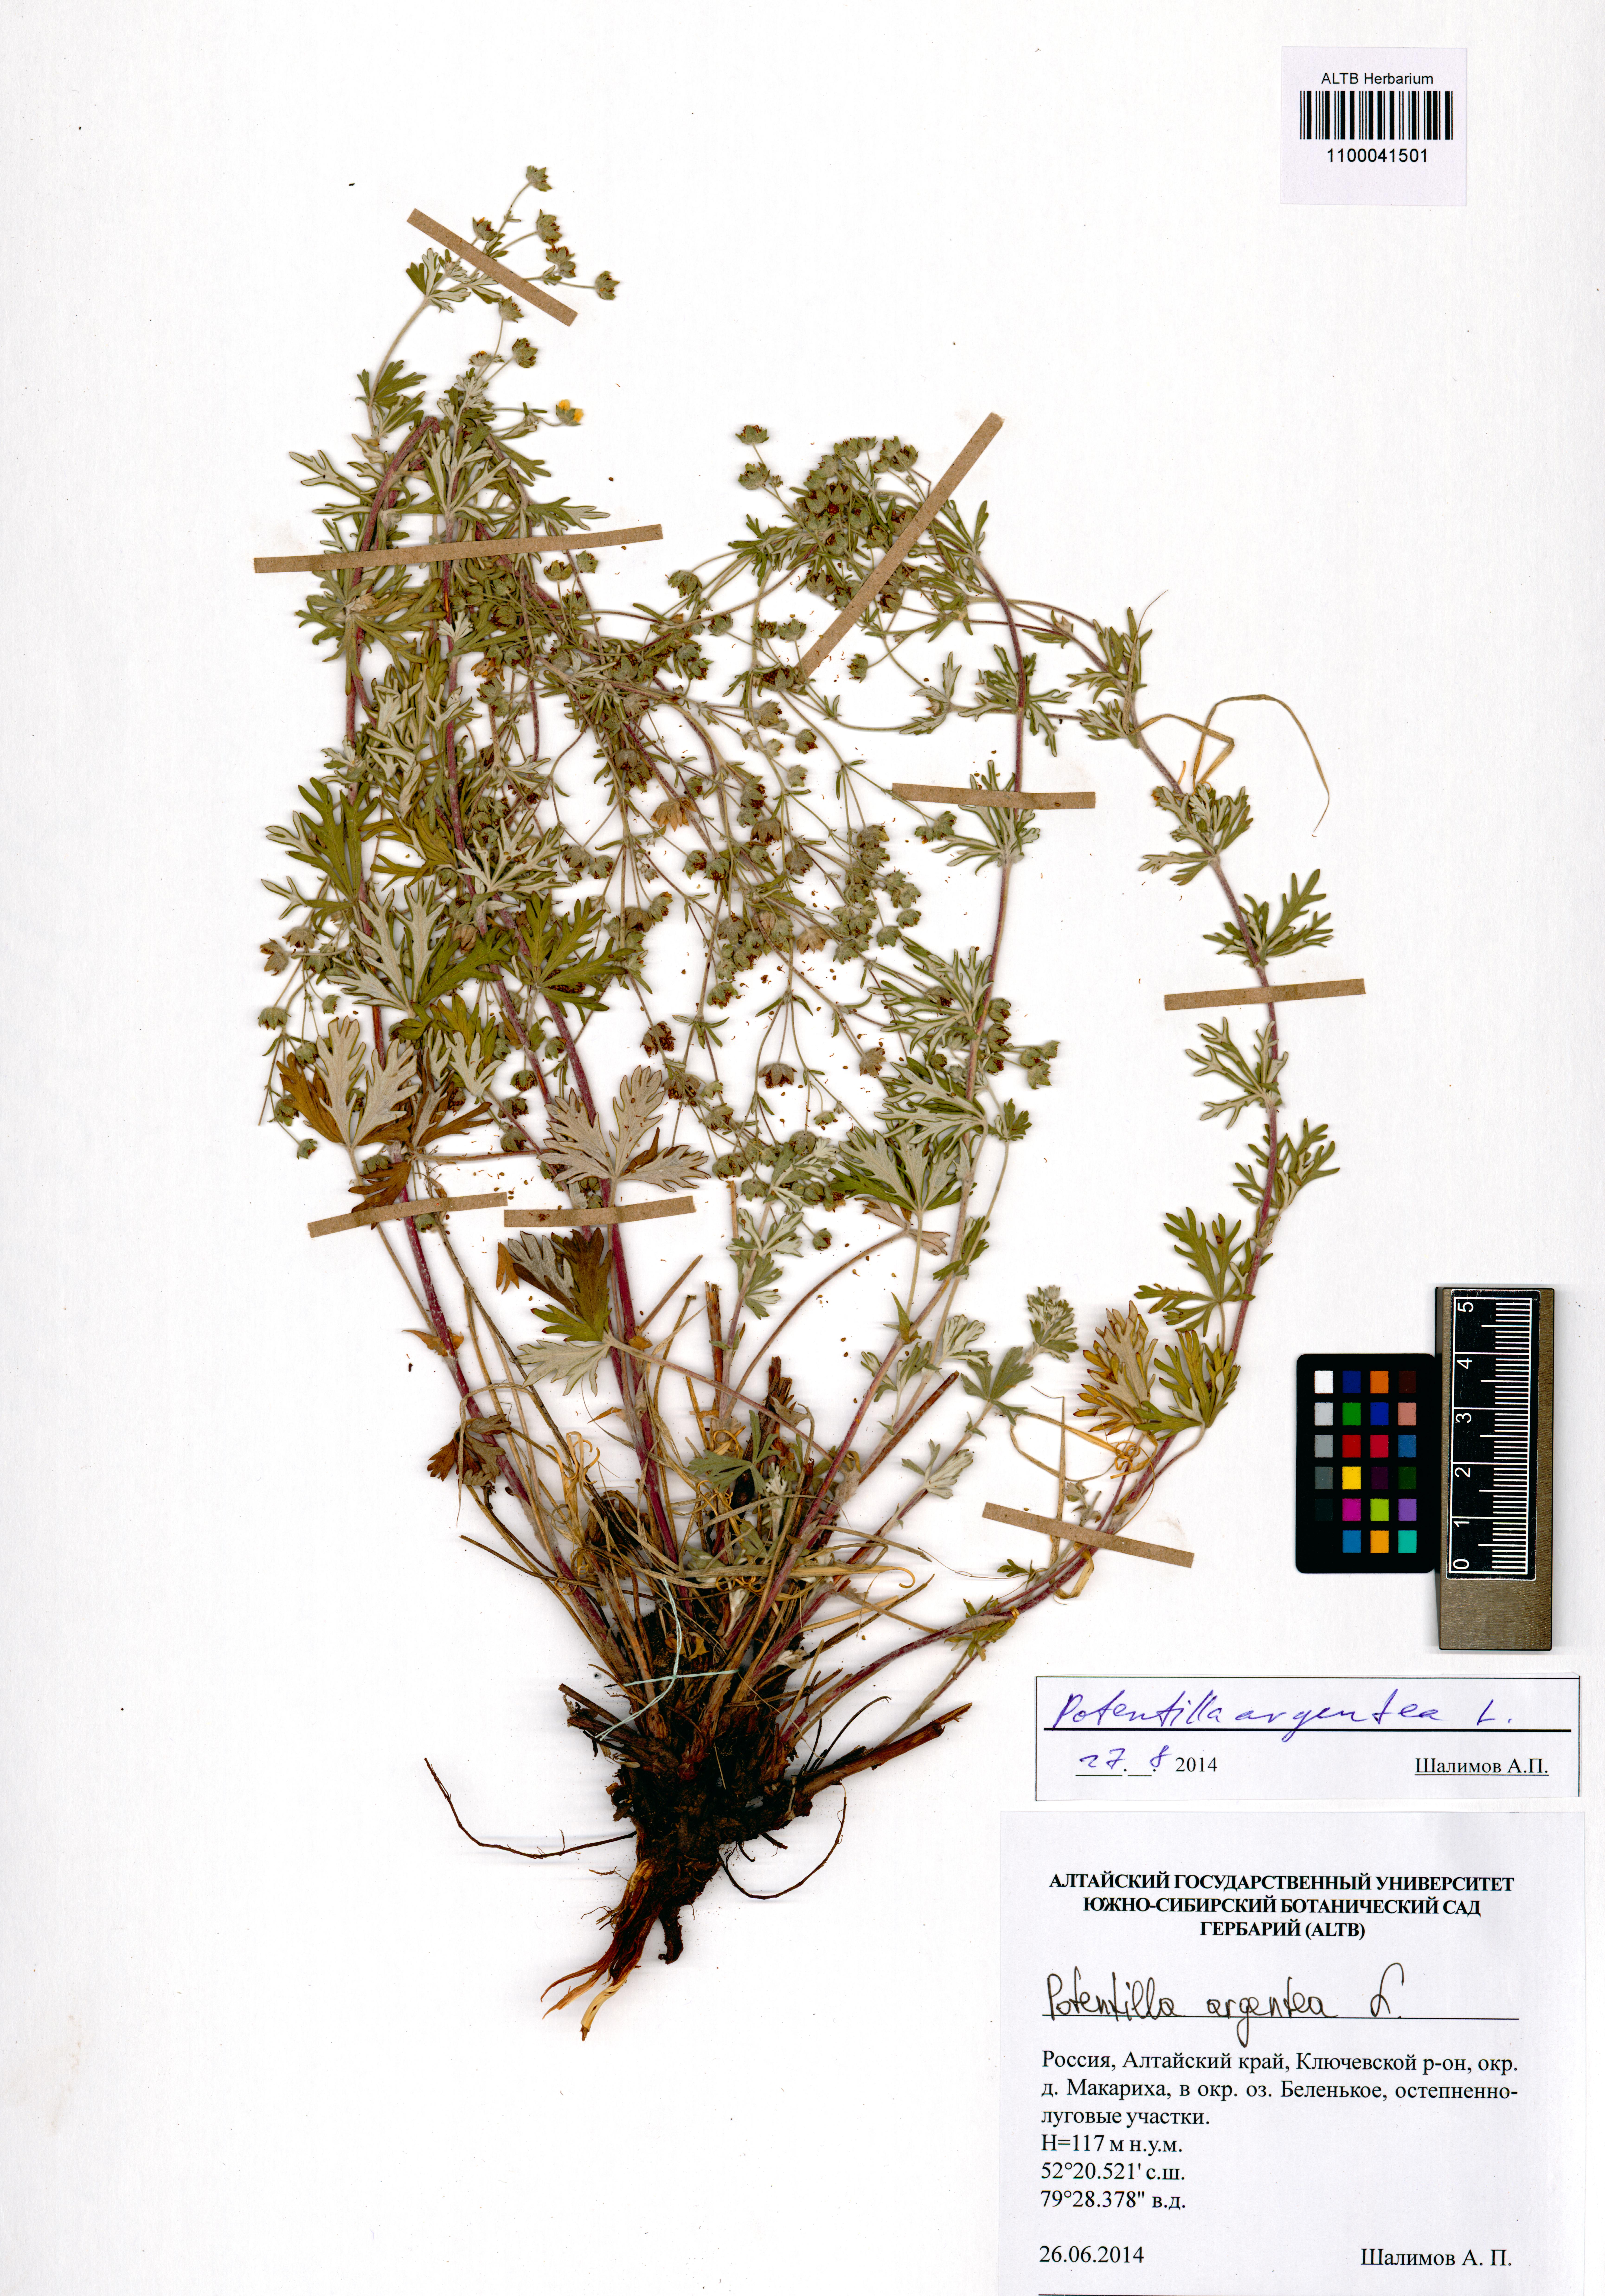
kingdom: Plantae
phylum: Tracheophyta
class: Magnoliopsida
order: Rosales
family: Rosaceae
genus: Potentilla
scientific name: Potentilla argentea
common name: Hoary cinquefoil
